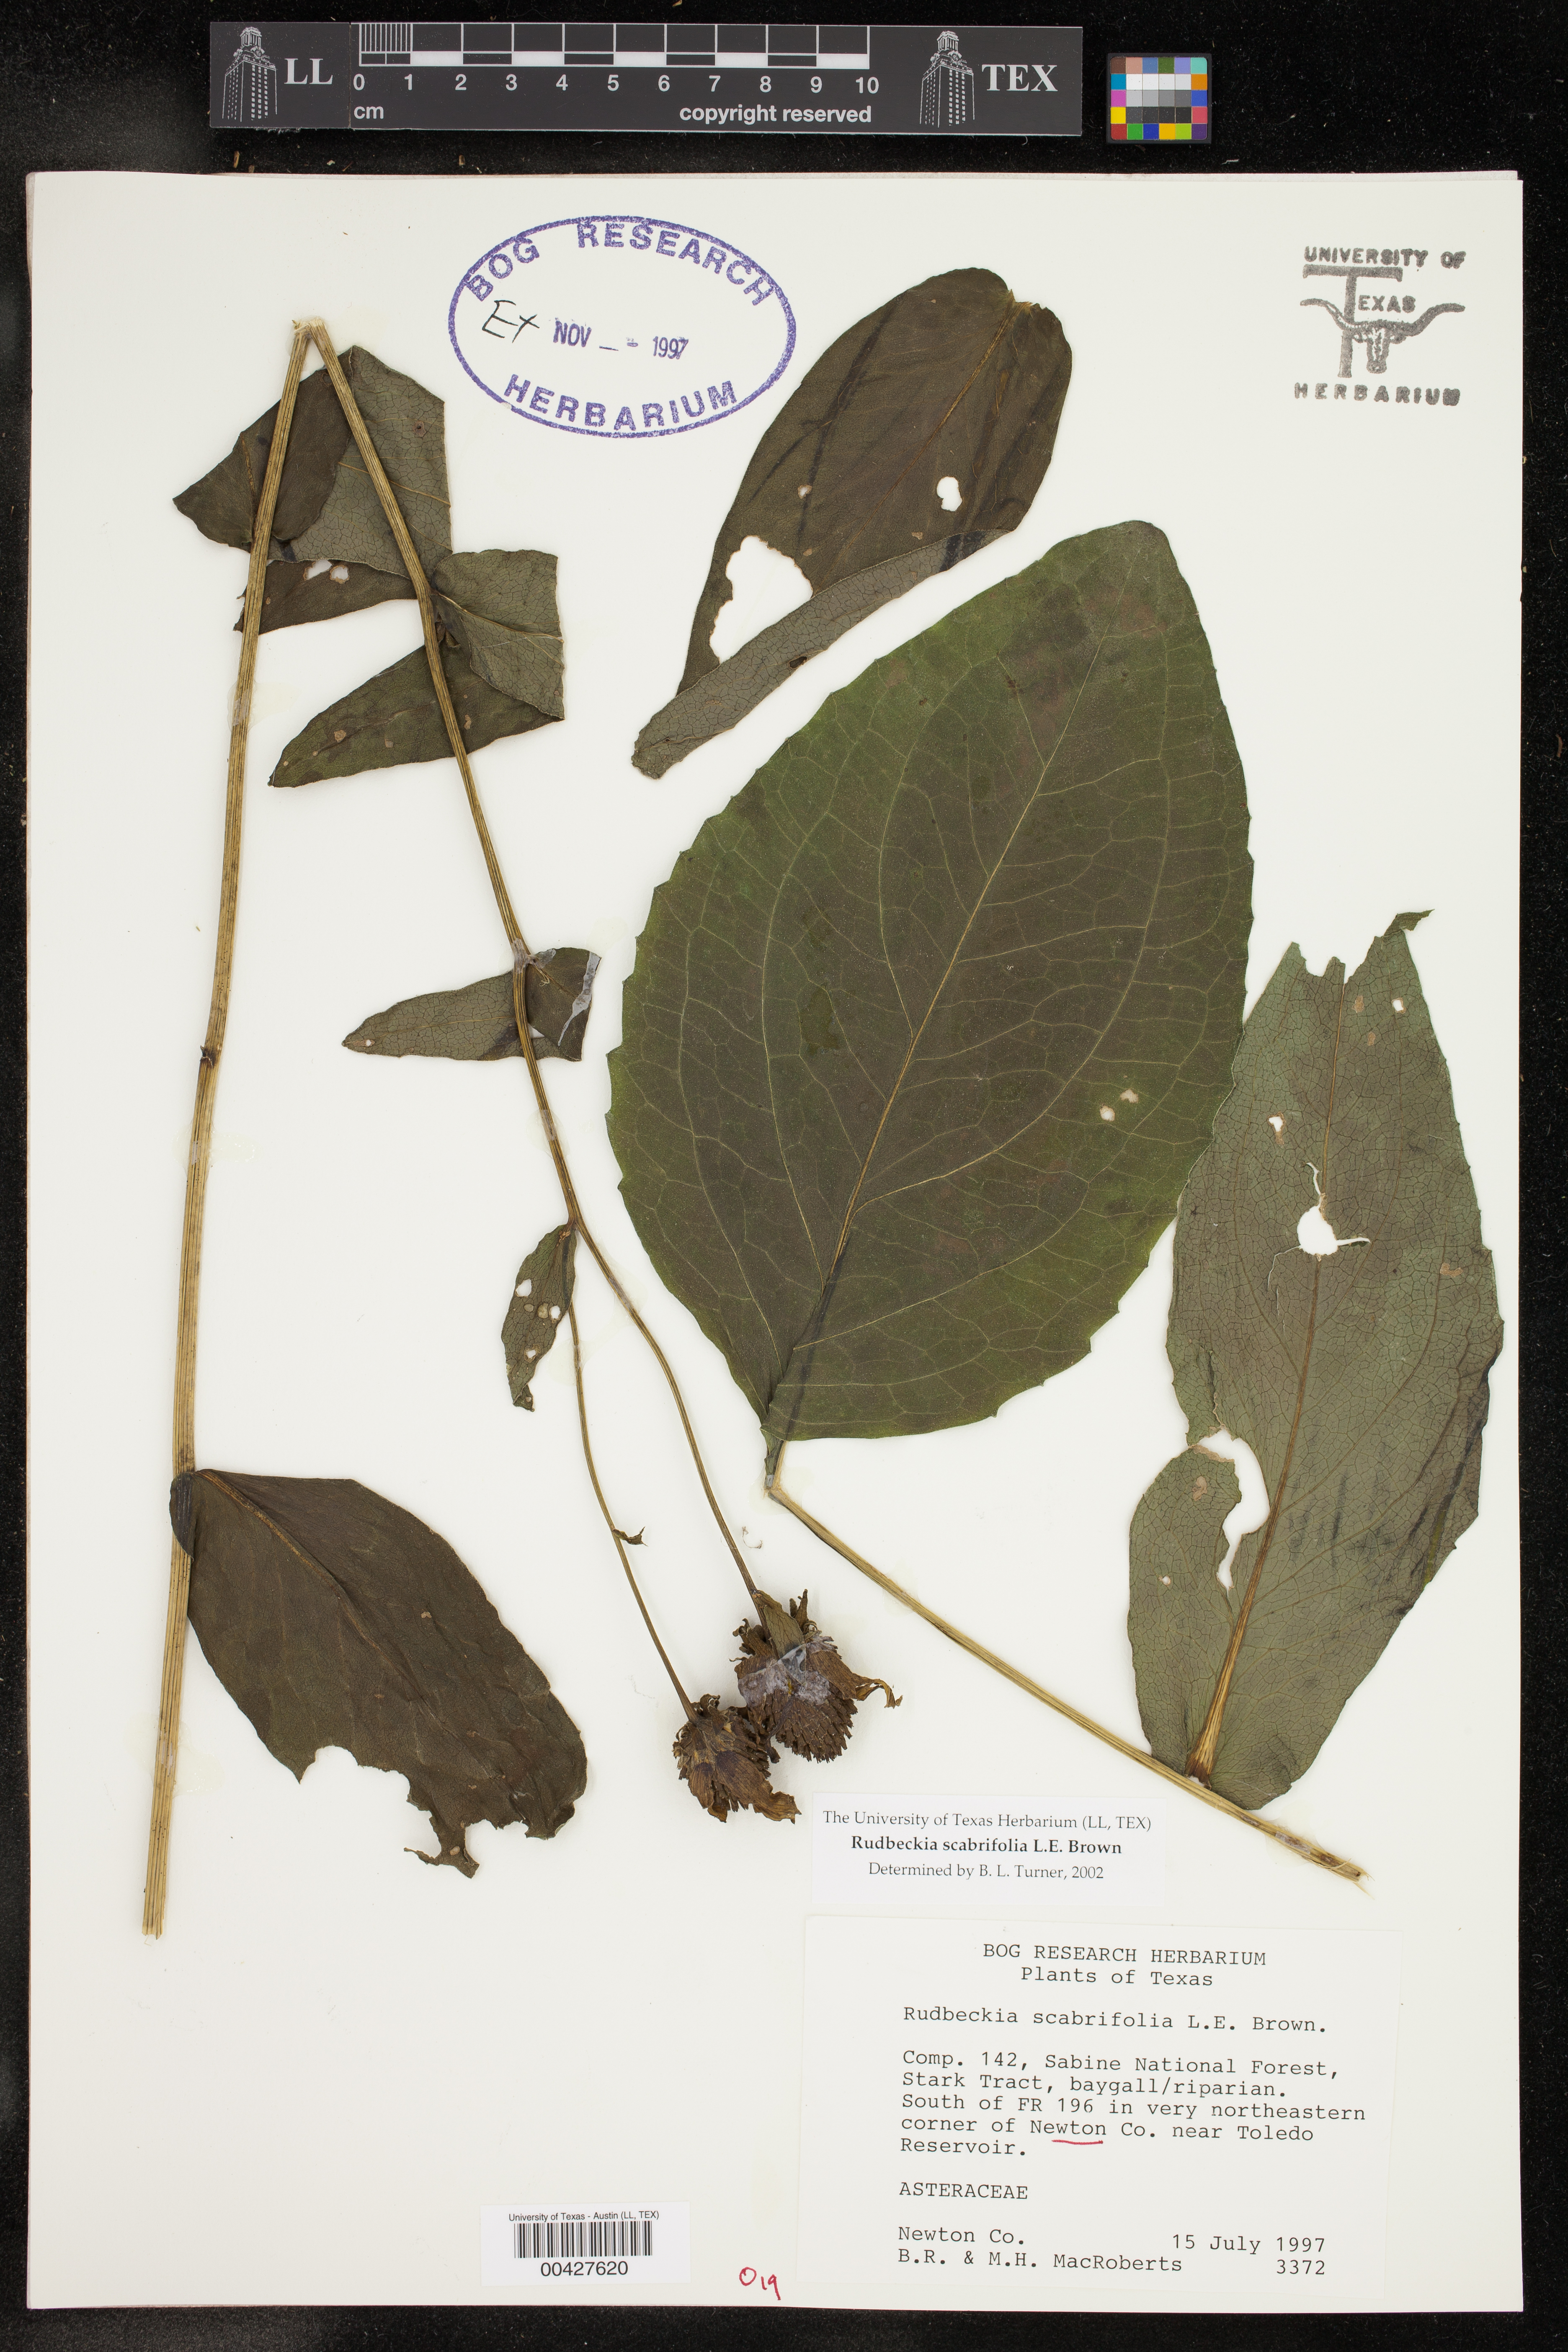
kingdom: Plantae
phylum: Tracheophyta
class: Magnoliopsida
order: Asterales
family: Asteraceae
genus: Rudbeckia
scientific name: Rudbeckia scabrifolia
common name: Rough-leaf coneflower
